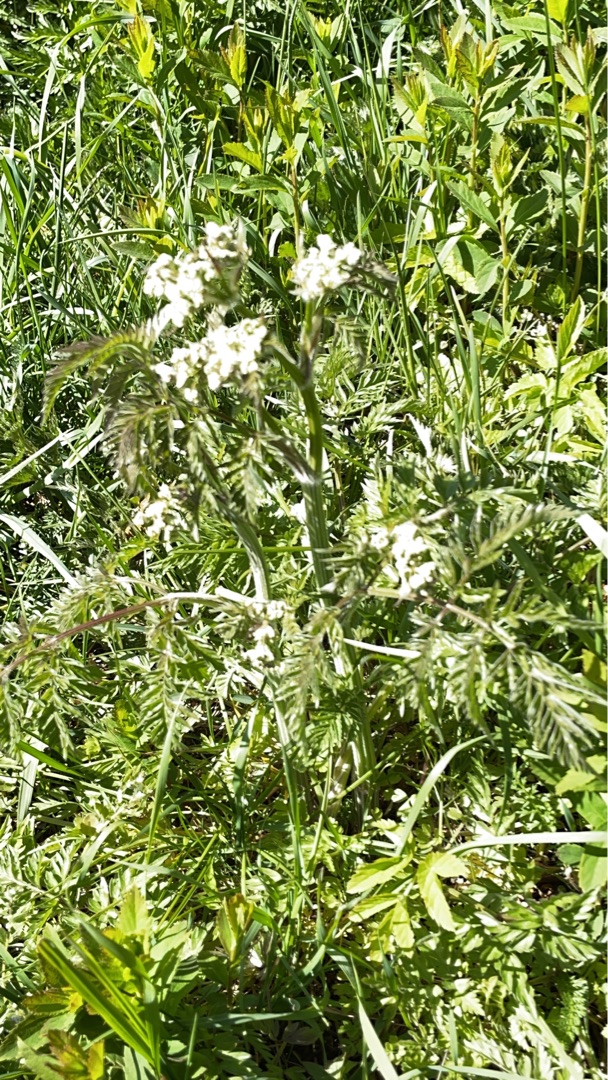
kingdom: Plantae
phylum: Tracheophyta
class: Magnoliopsida
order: Apiales
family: Apiaceae
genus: Anthriscus
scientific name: Anthriscus sylvestris
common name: Vild kørvel
